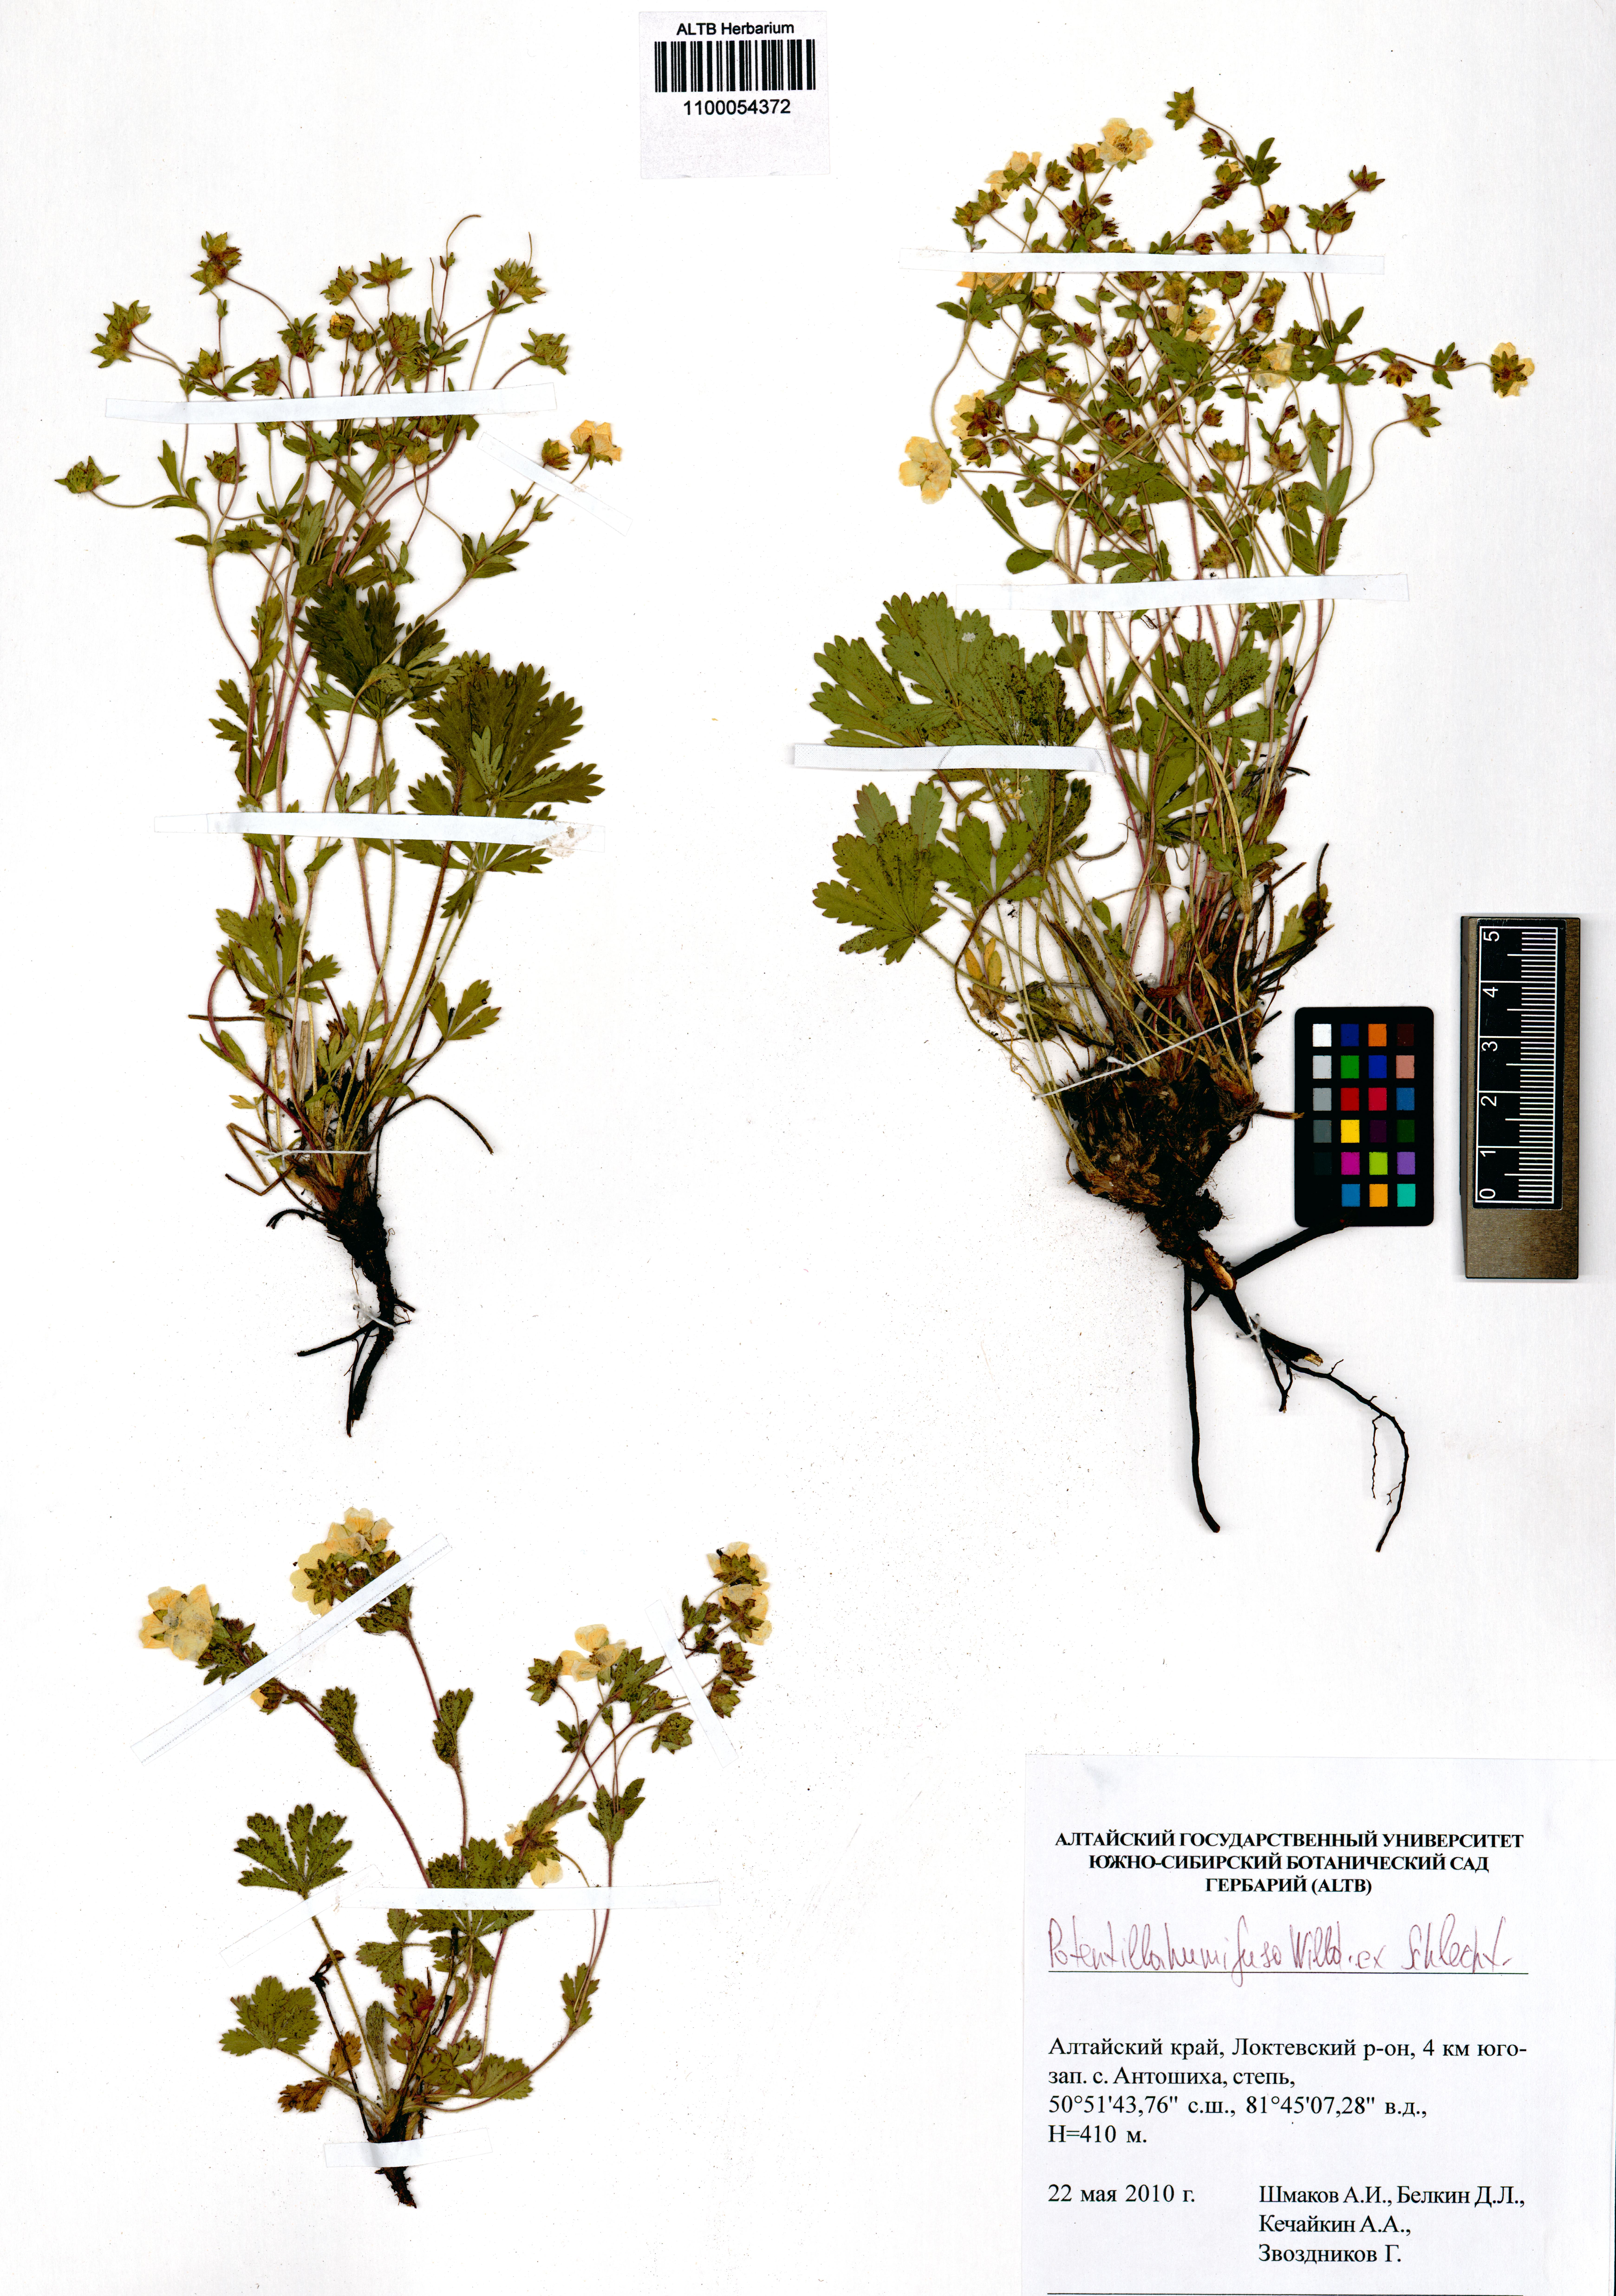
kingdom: Plantae
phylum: Tracheophyta
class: Magnoliopsida
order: Rosales
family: Rosaceae
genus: Potentilla
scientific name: Potentilla humifusa
